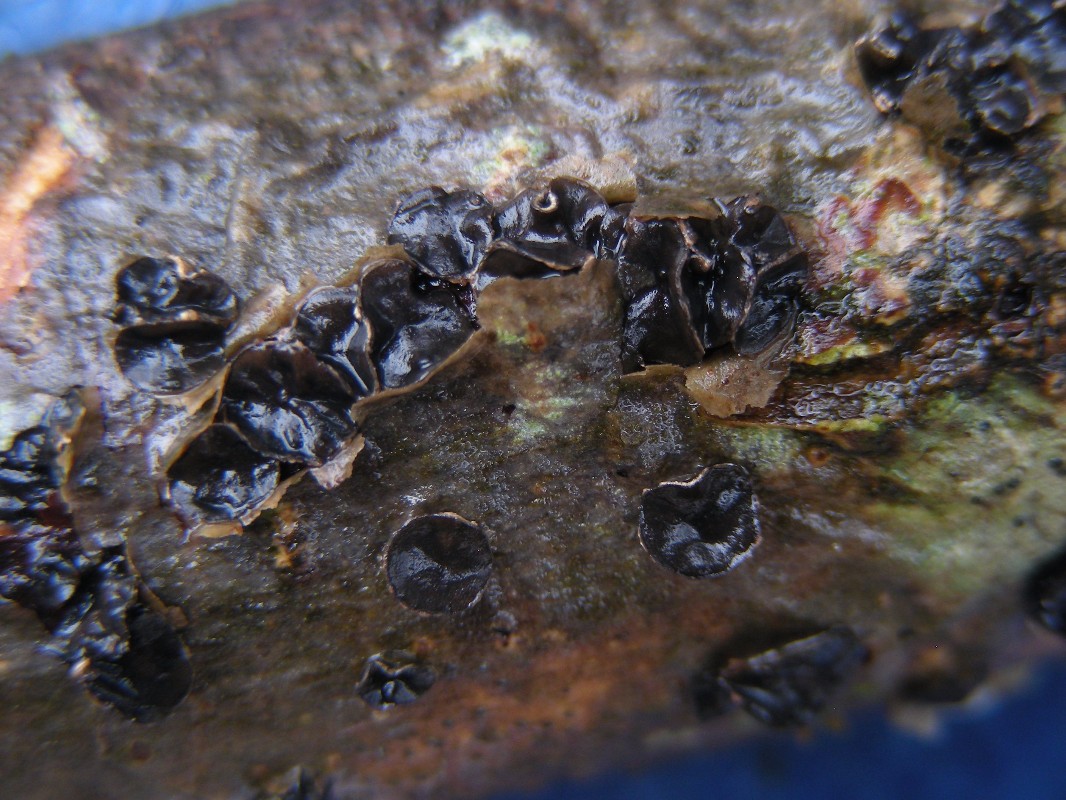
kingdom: Fungi
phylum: Ascomycota
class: Leotiomycetes
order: Helotiales
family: Sclerotiniaceae
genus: Sclerencoelia
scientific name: Sclerencoelia fraxinicola
